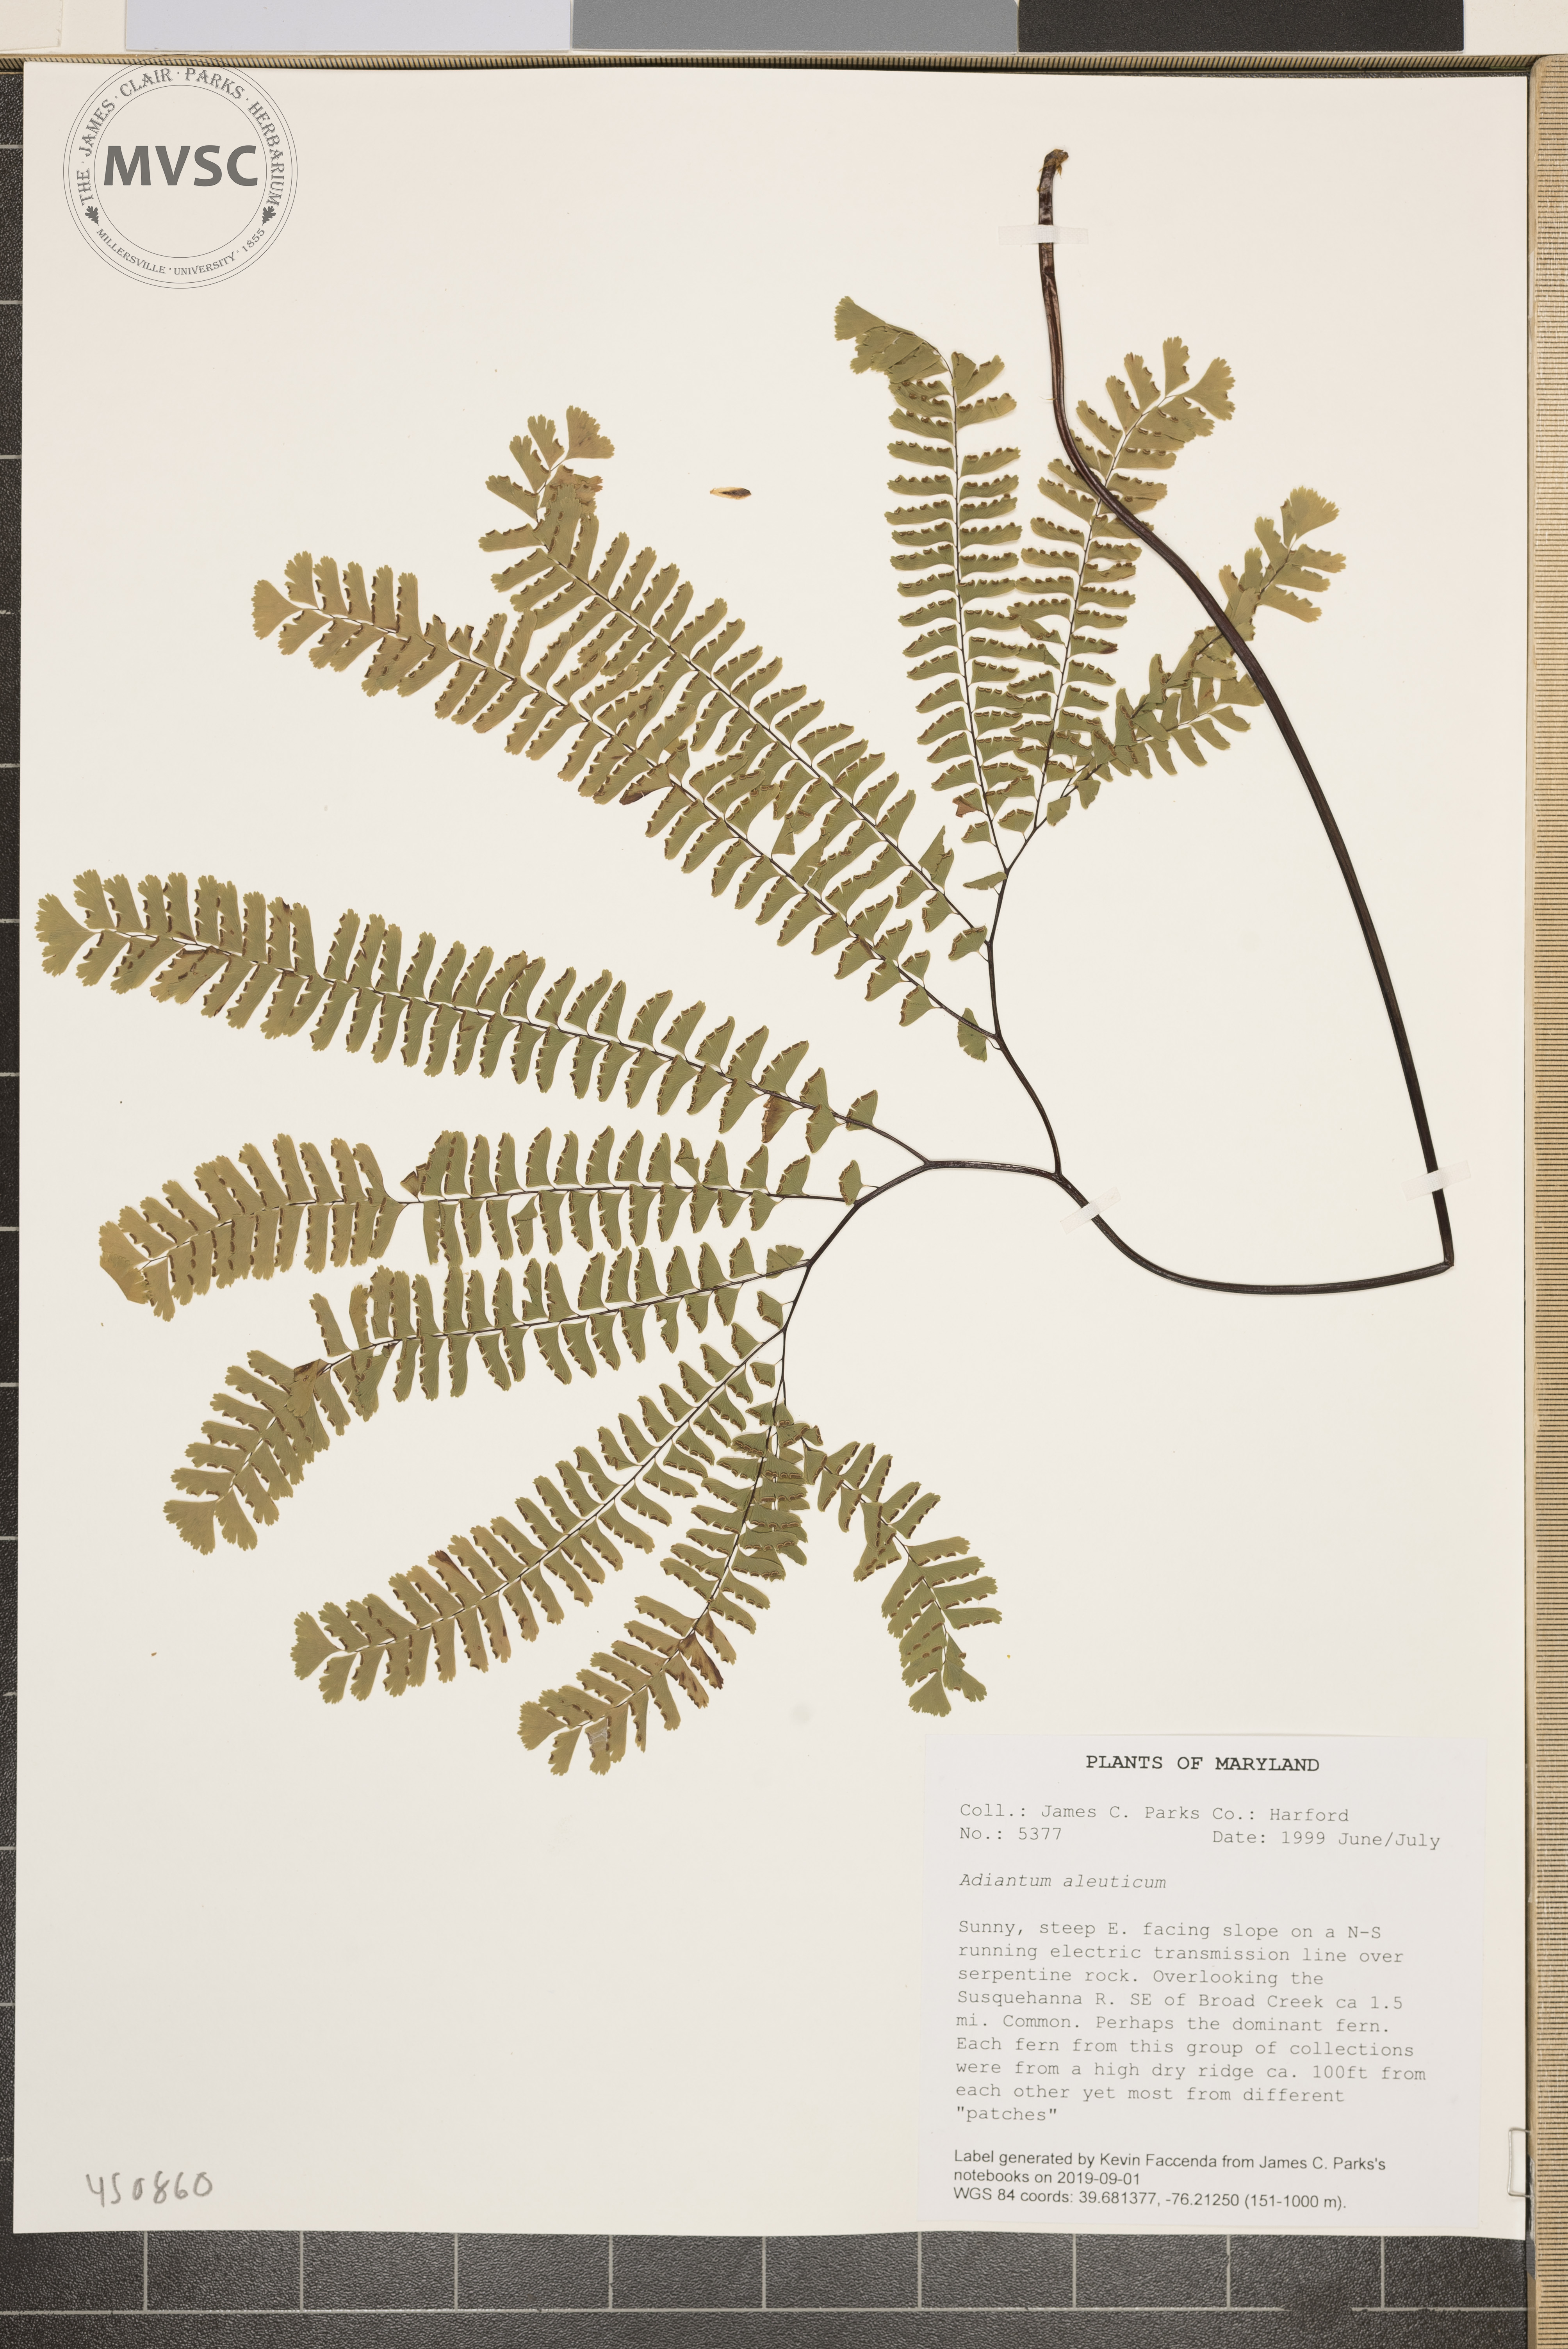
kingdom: Plantae
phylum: Tracheophyta
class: Polypodiopsida
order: Polypodiales
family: Pteridaceae
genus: Adiantum
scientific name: Adiantum aleuticum
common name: Aleutian maidenhair fern
